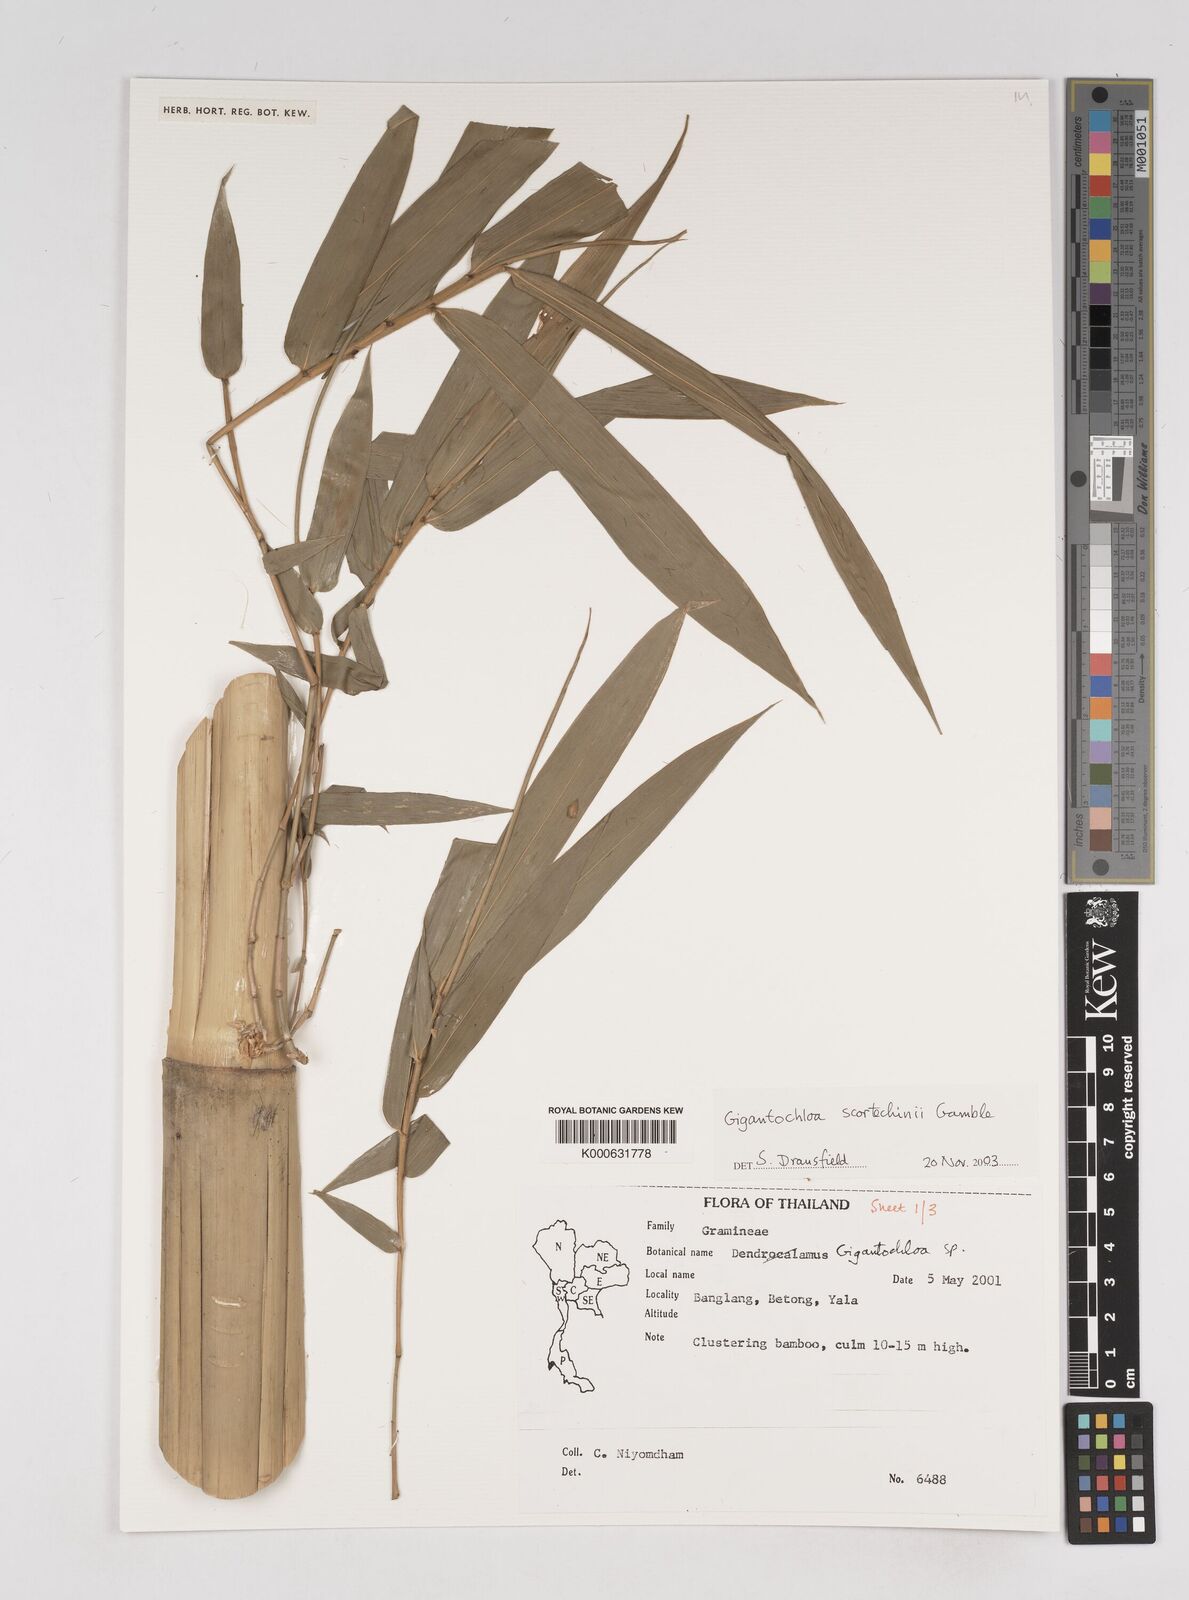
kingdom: Plantae
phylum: Tracheophyta
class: Liliopsida
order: Poales
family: Poaceae
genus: Gigantochloa
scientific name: Gigantochloa scortechinii
